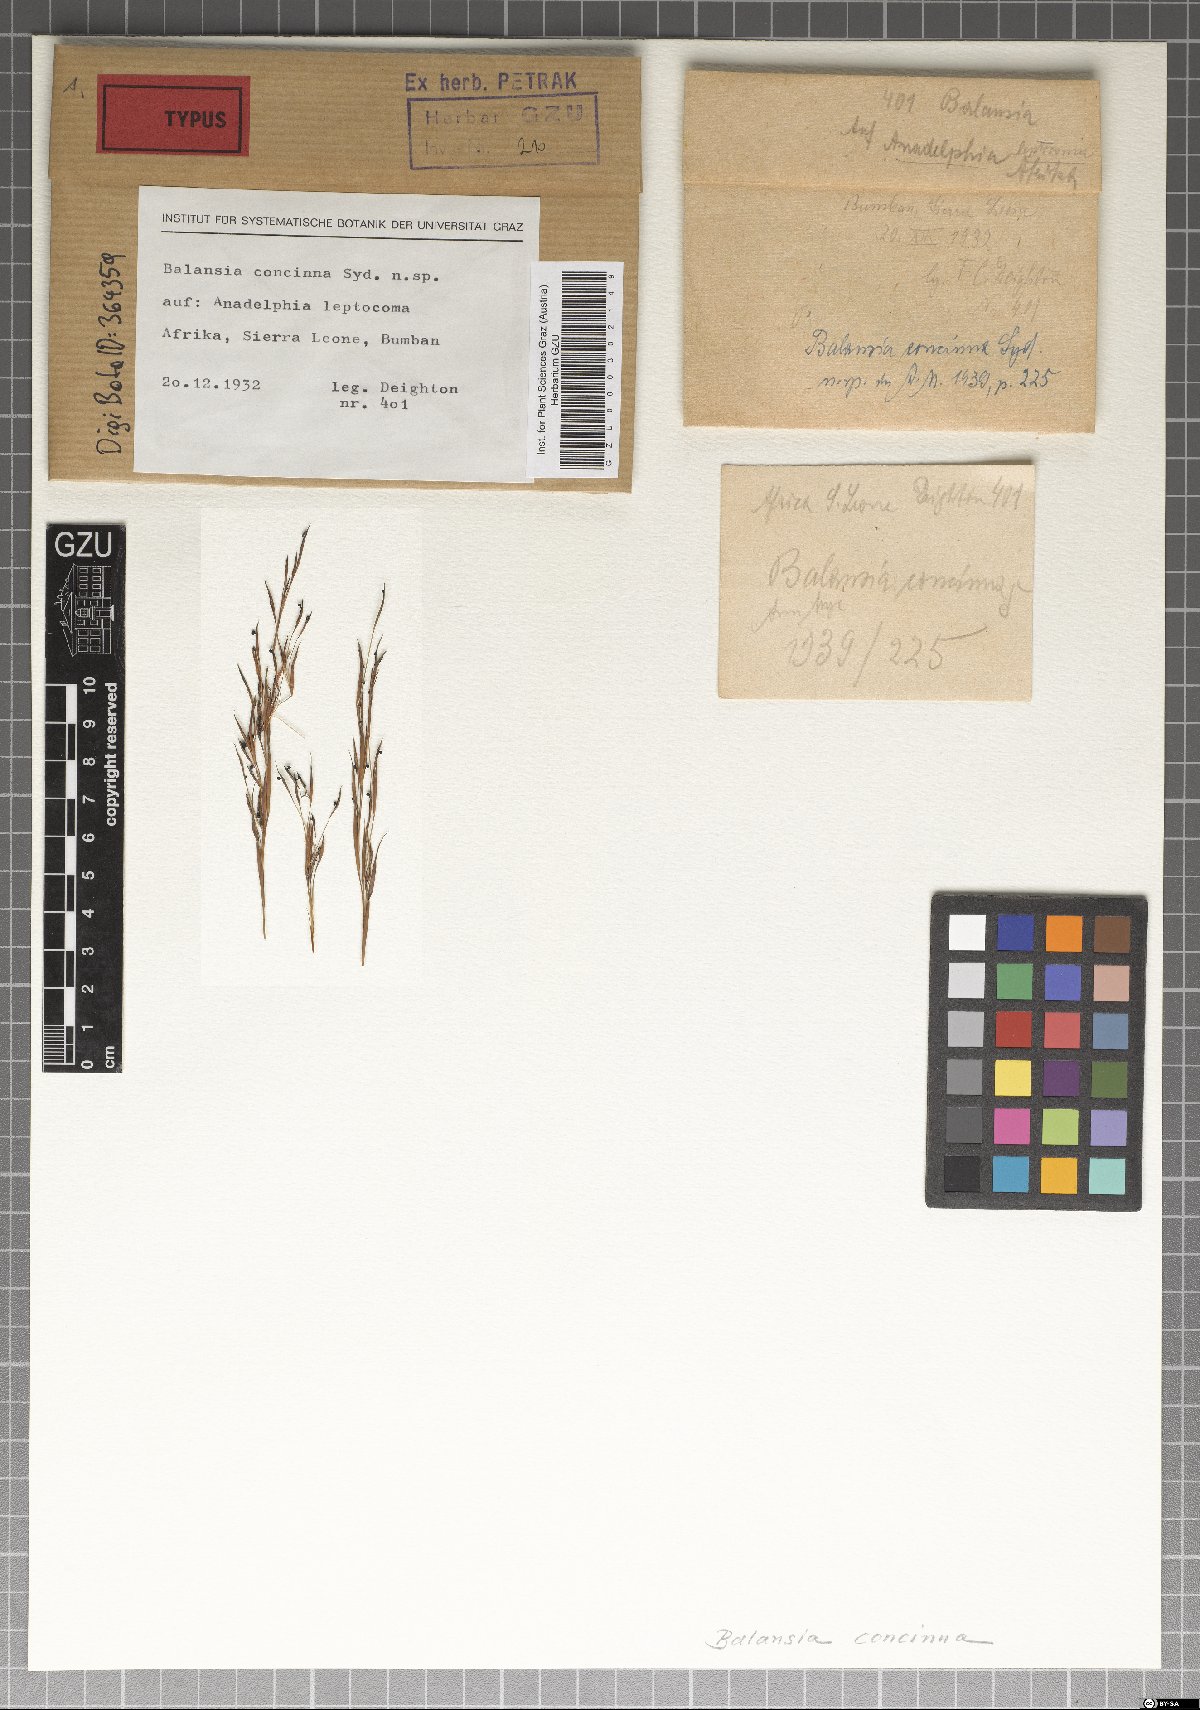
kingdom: Fungi
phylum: Ascomycota
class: Sordariomycetes
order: Hypocreales
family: Clavicipitaceae
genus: Balansia
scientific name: Balansia concinna
